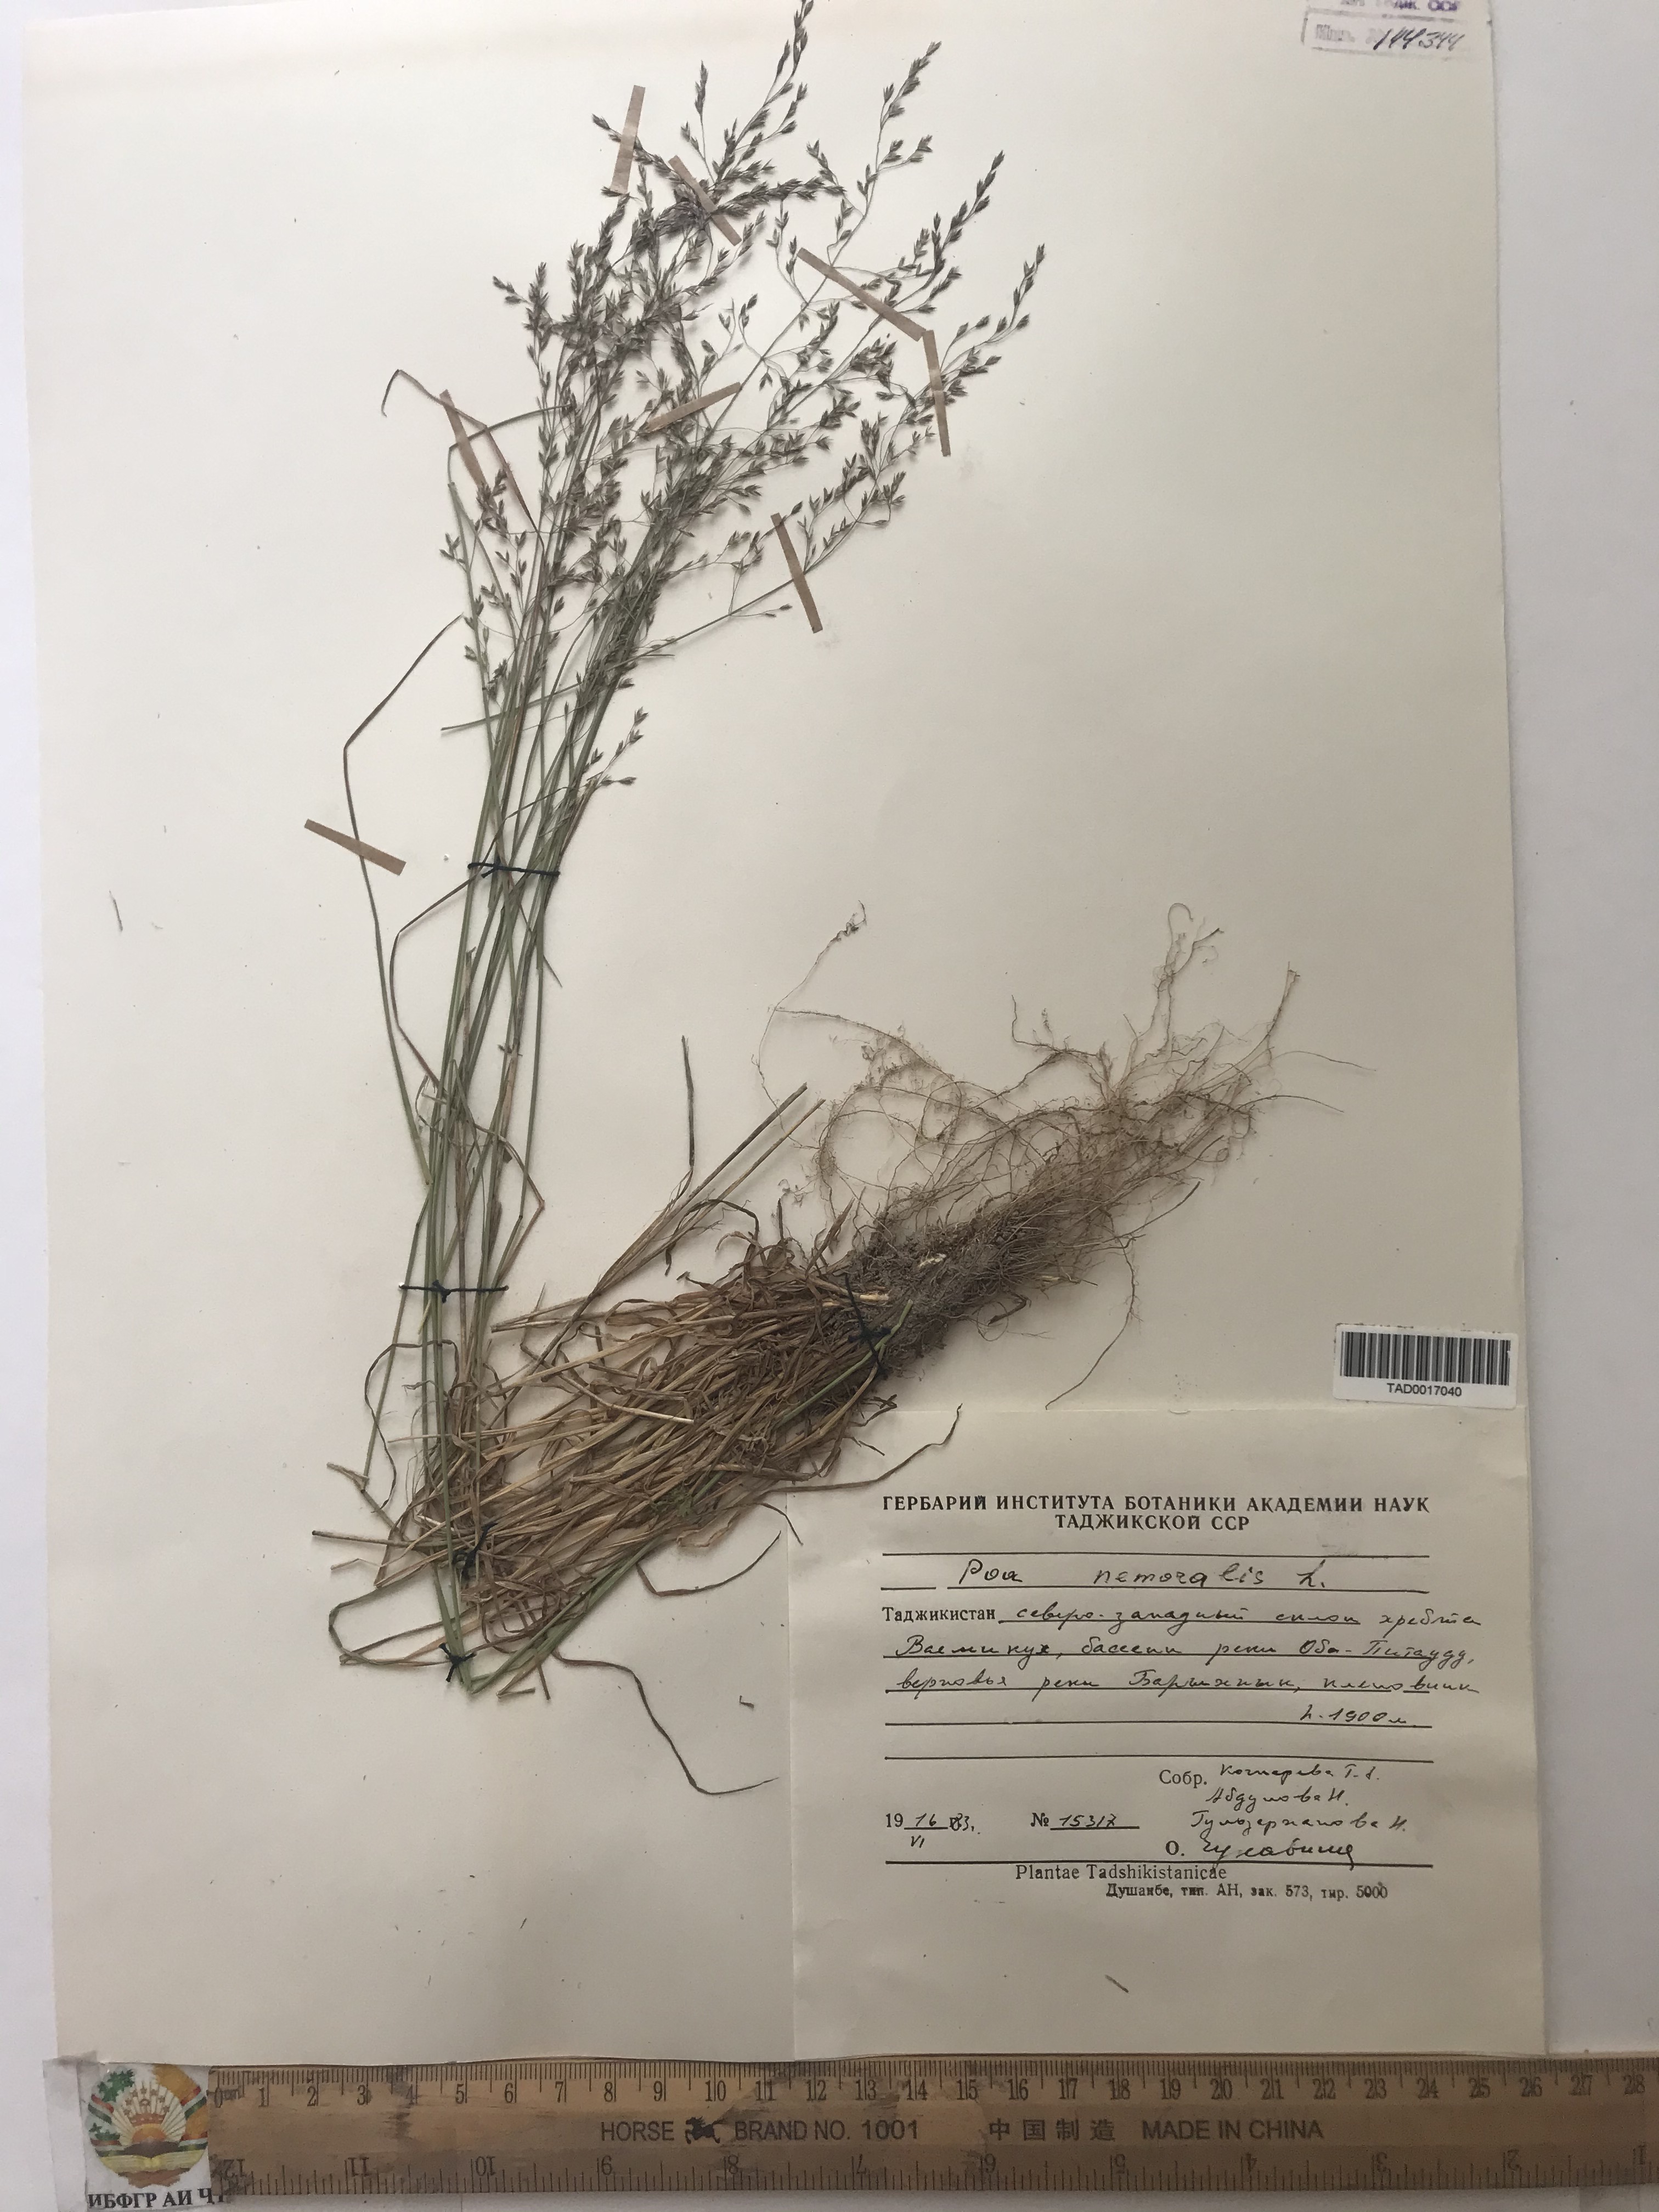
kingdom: Plantae
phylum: Tracheophyta
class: Liliopsida
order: Poales
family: Poaceae
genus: Poa
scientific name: Poa nemoralis
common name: Wood bluegrass
